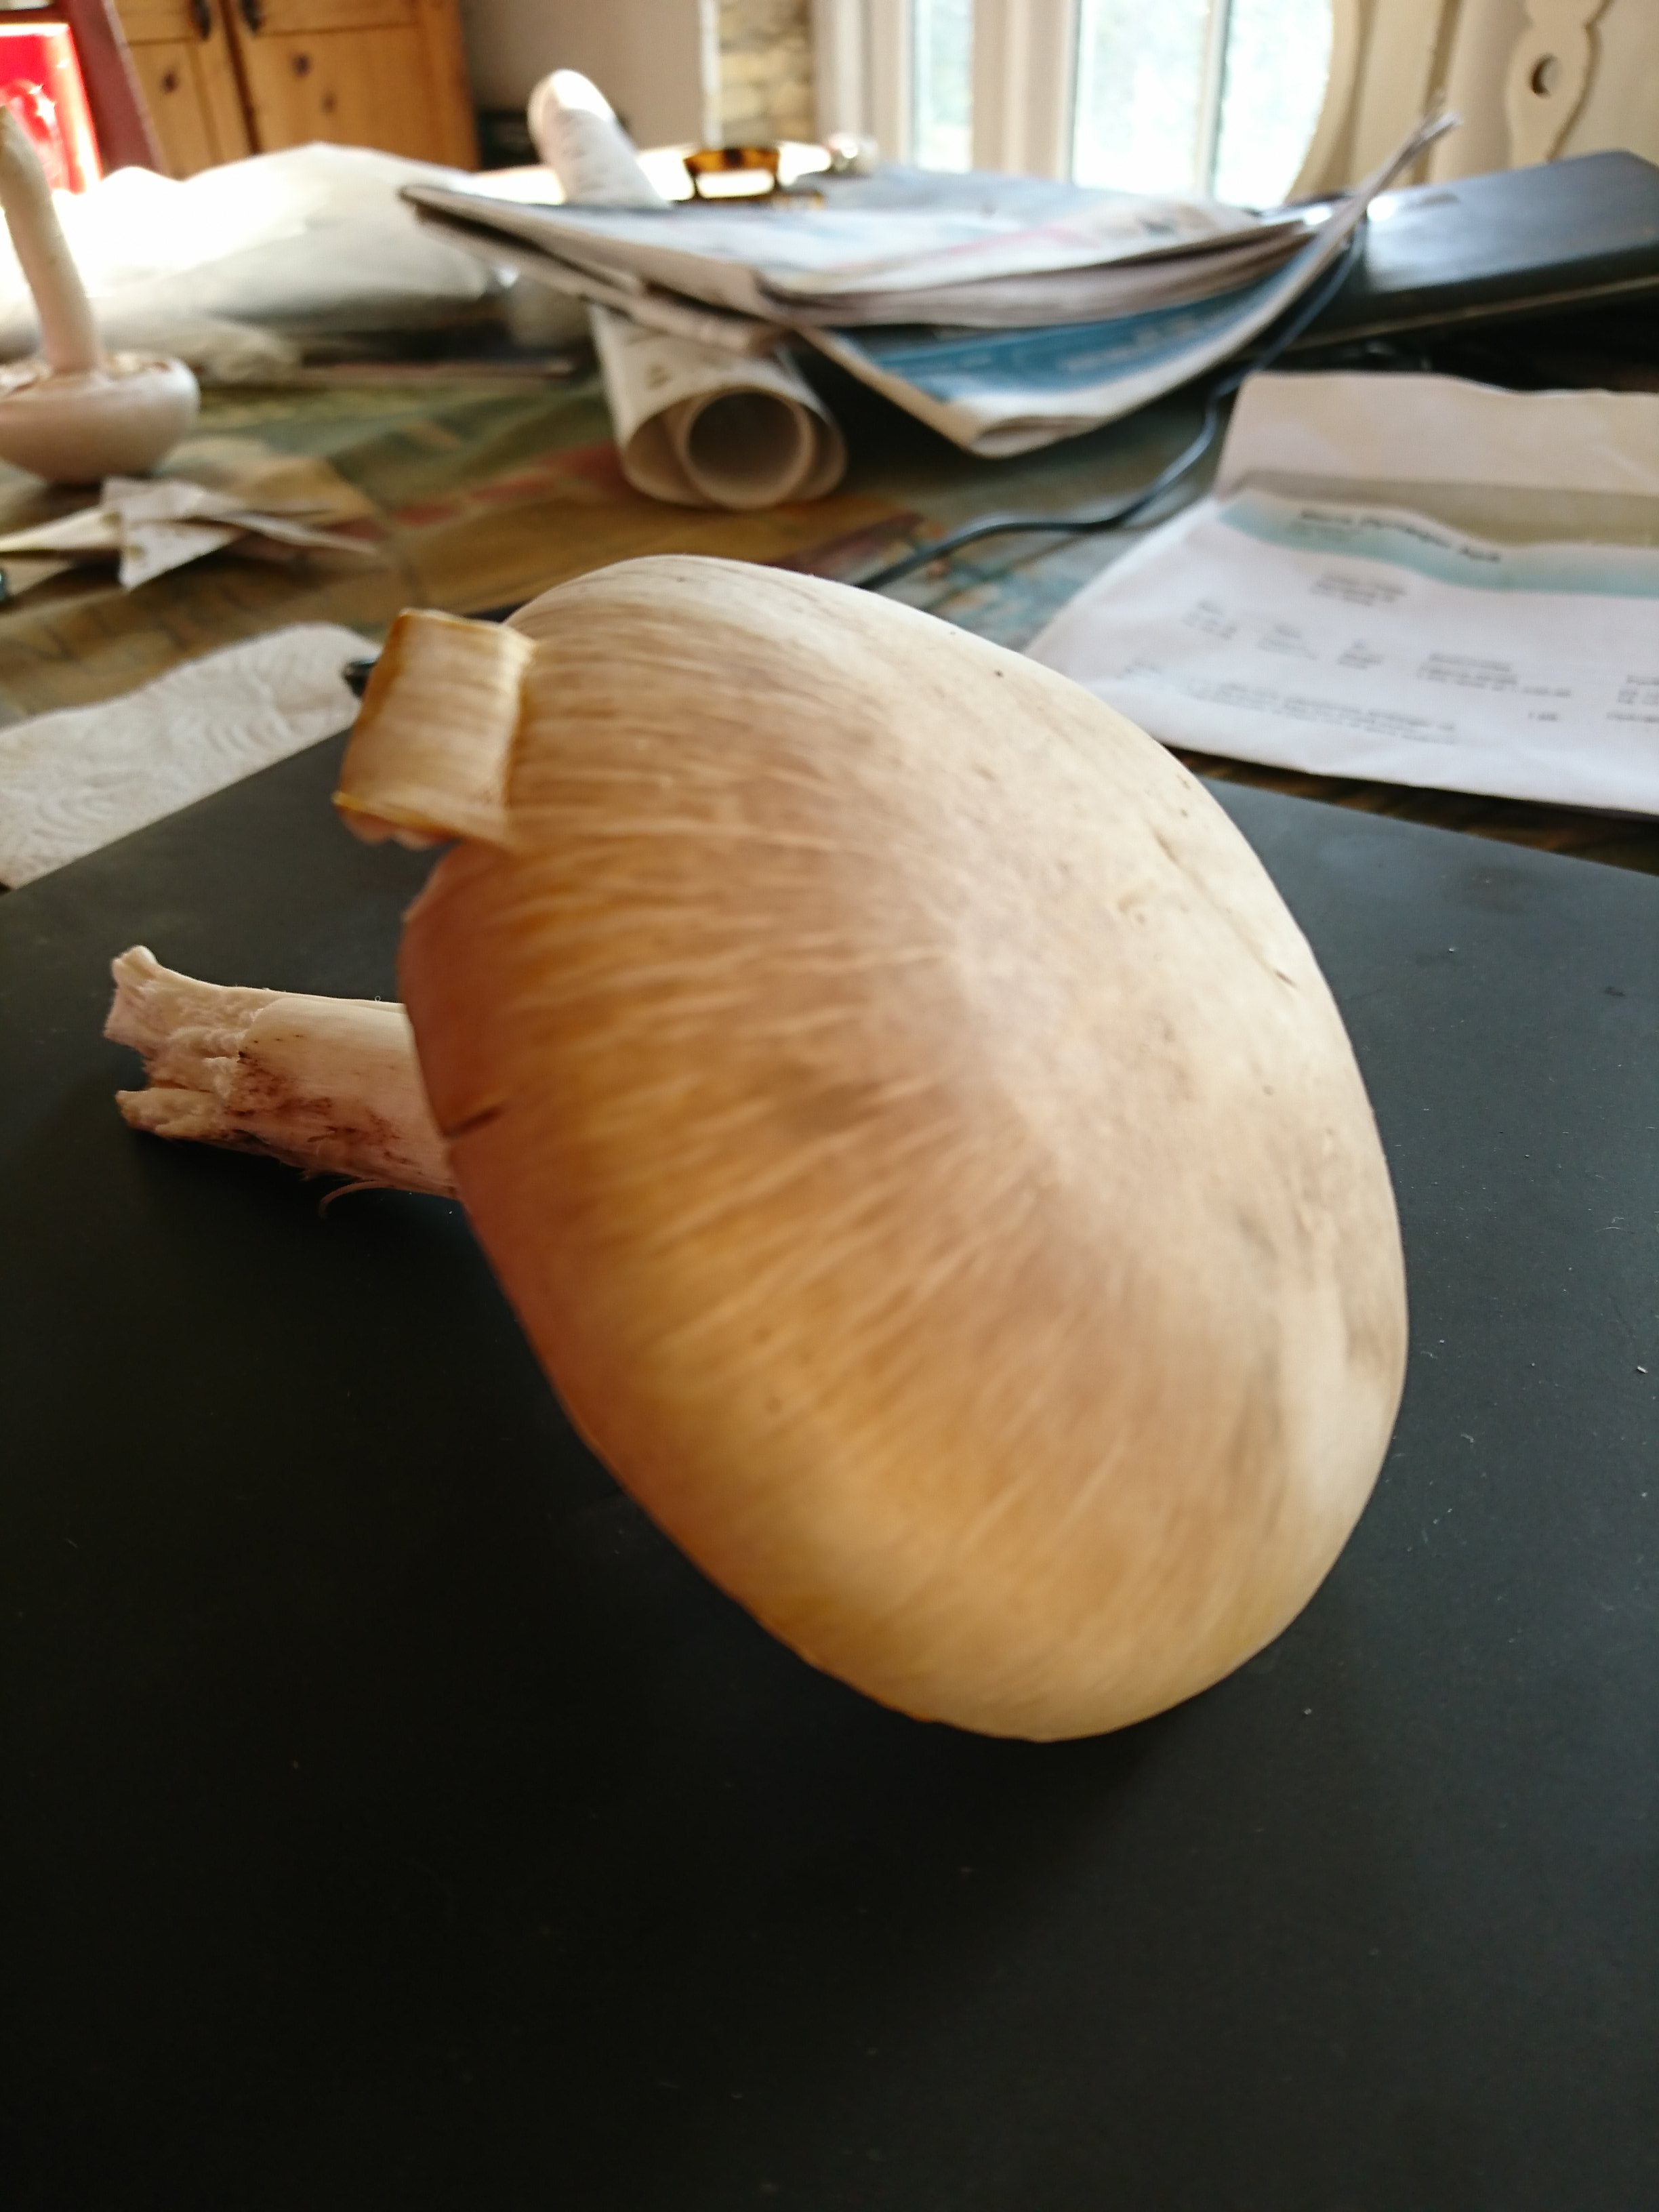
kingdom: Fungi
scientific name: Fungi
